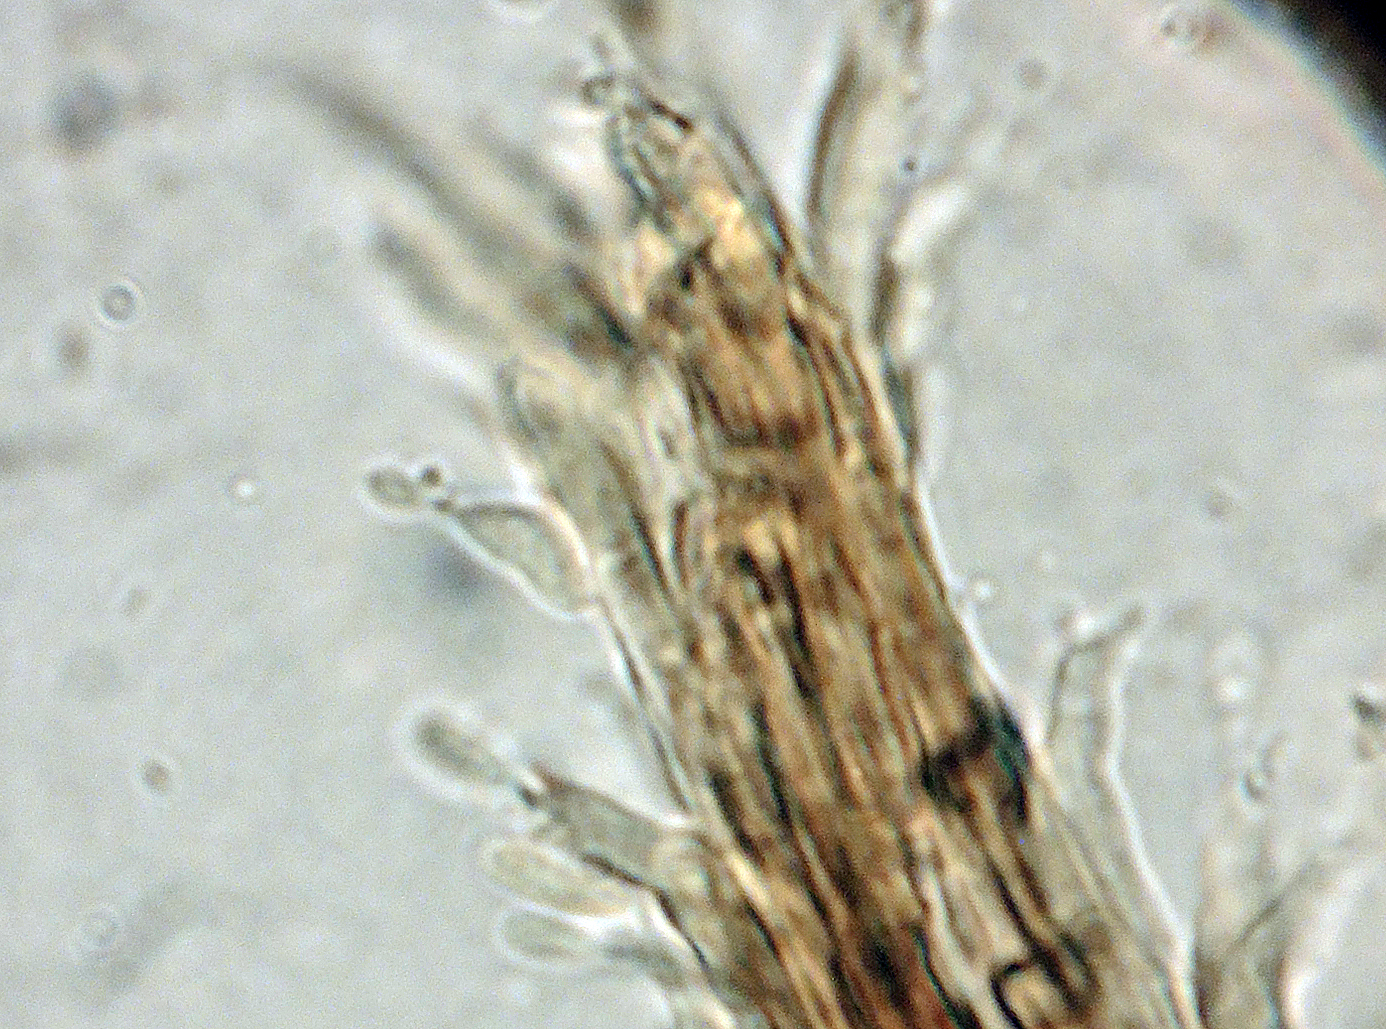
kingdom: Fungi
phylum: Ascomycota
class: Sordariomycetes
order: Xylariales
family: Diatrypaceae
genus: Phaeoisaria
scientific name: Phaeoisaria clematidis
